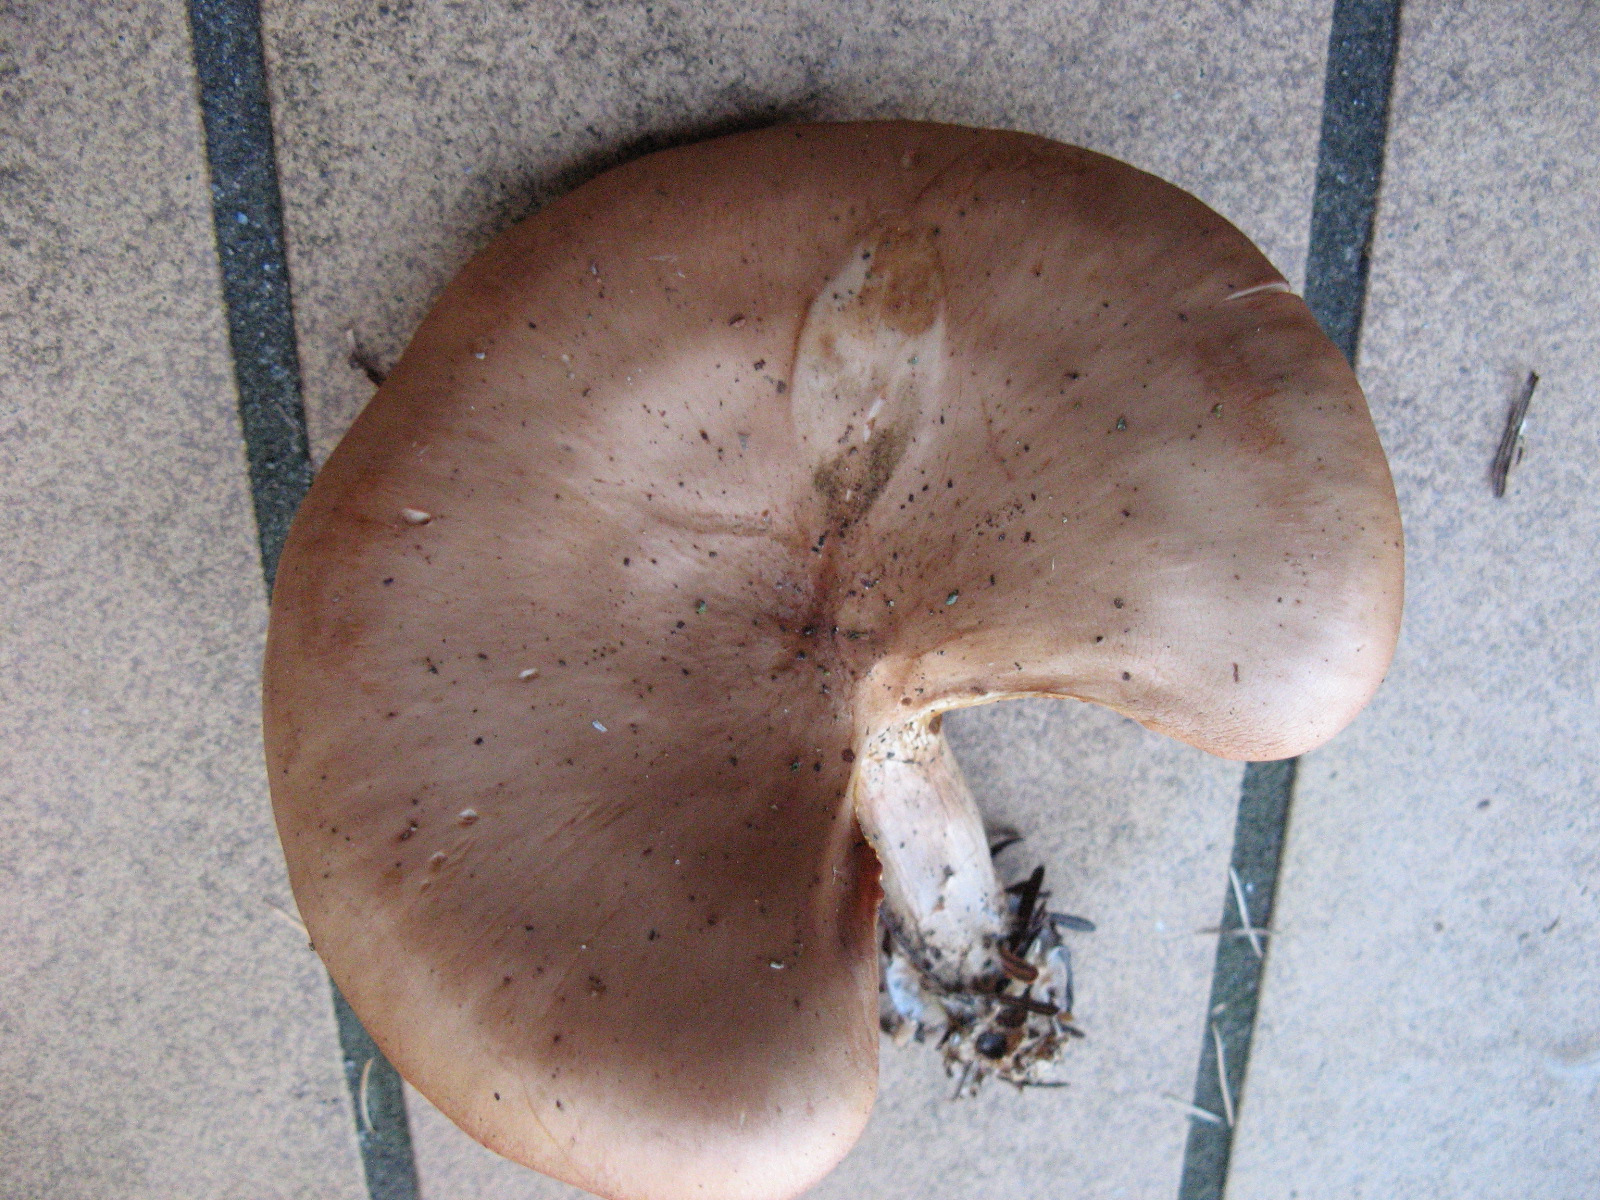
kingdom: Fungi
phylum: Basidiomycota
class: Agaricomycetes
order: Agaricales
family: Tricholomataceae
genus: Paralepista
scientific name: Paralepista flaccida
